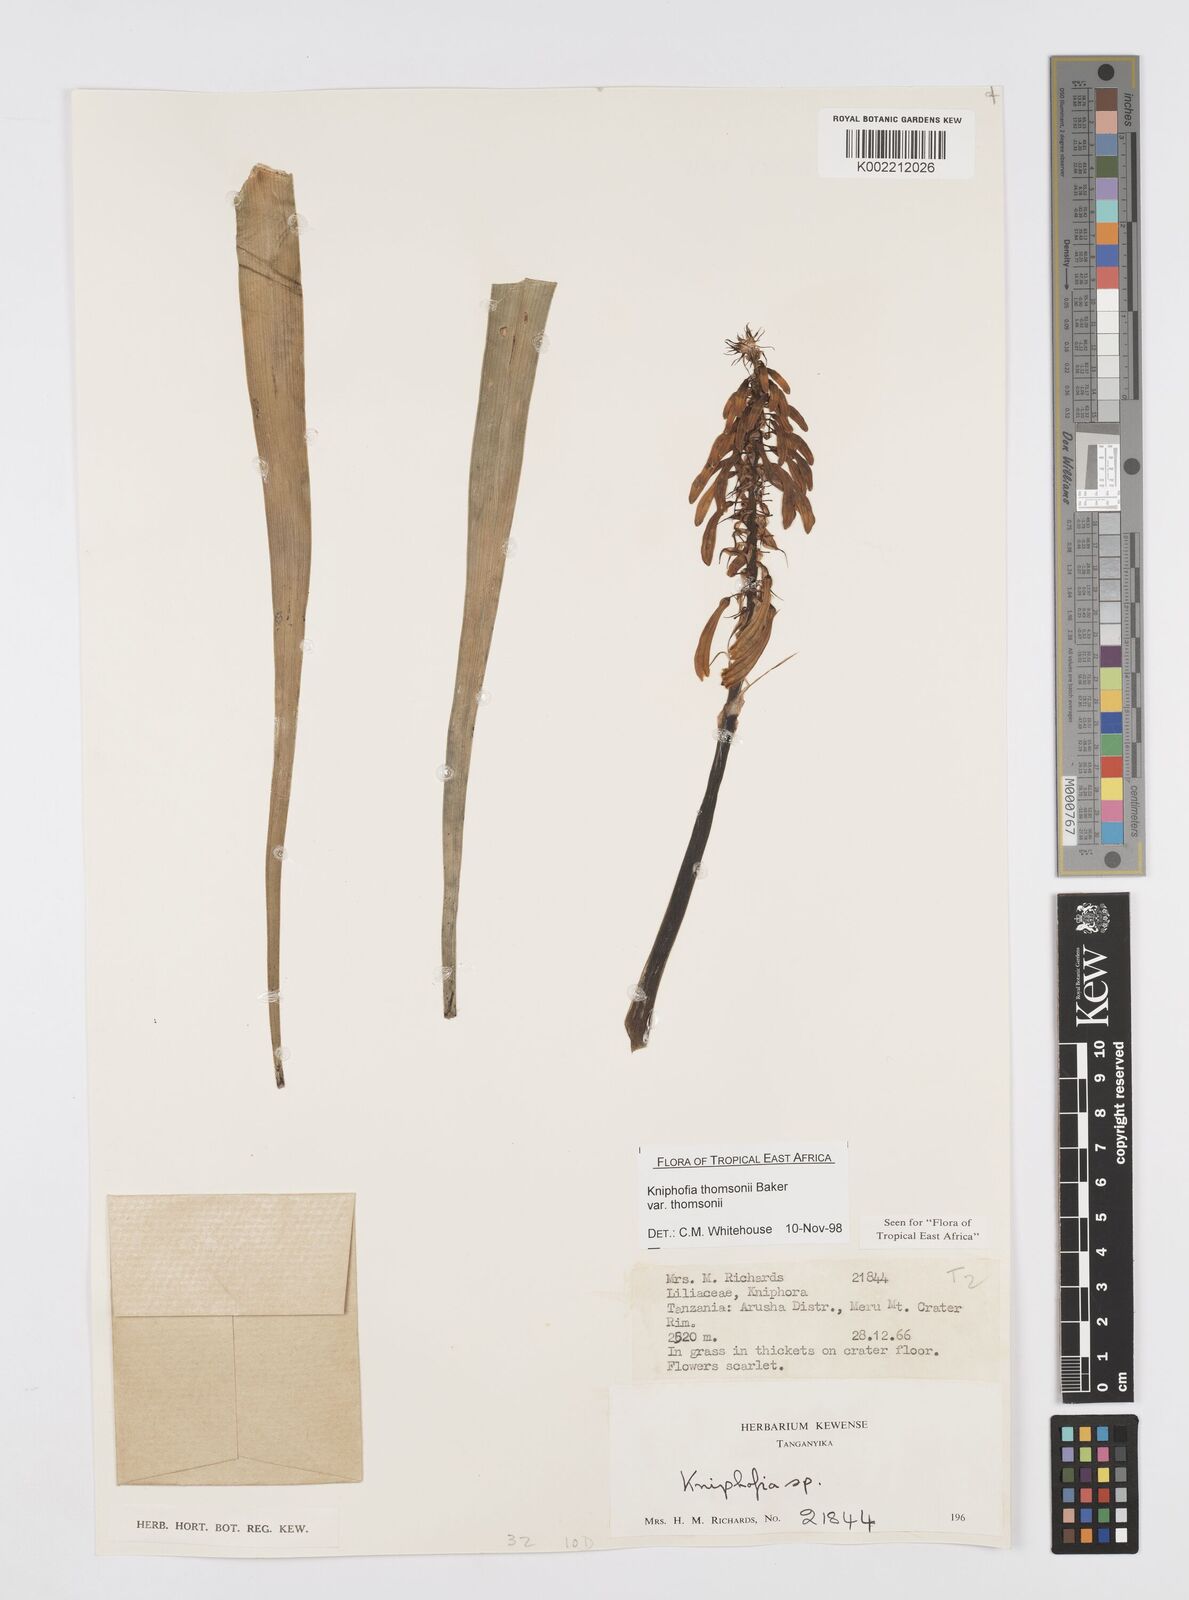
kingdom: Plantae
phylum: Tracheophyta
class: Liliopsida
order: Asparagales
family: Asphodelaceae
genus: Kniphofia
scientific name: Kniphofia thomsonii
